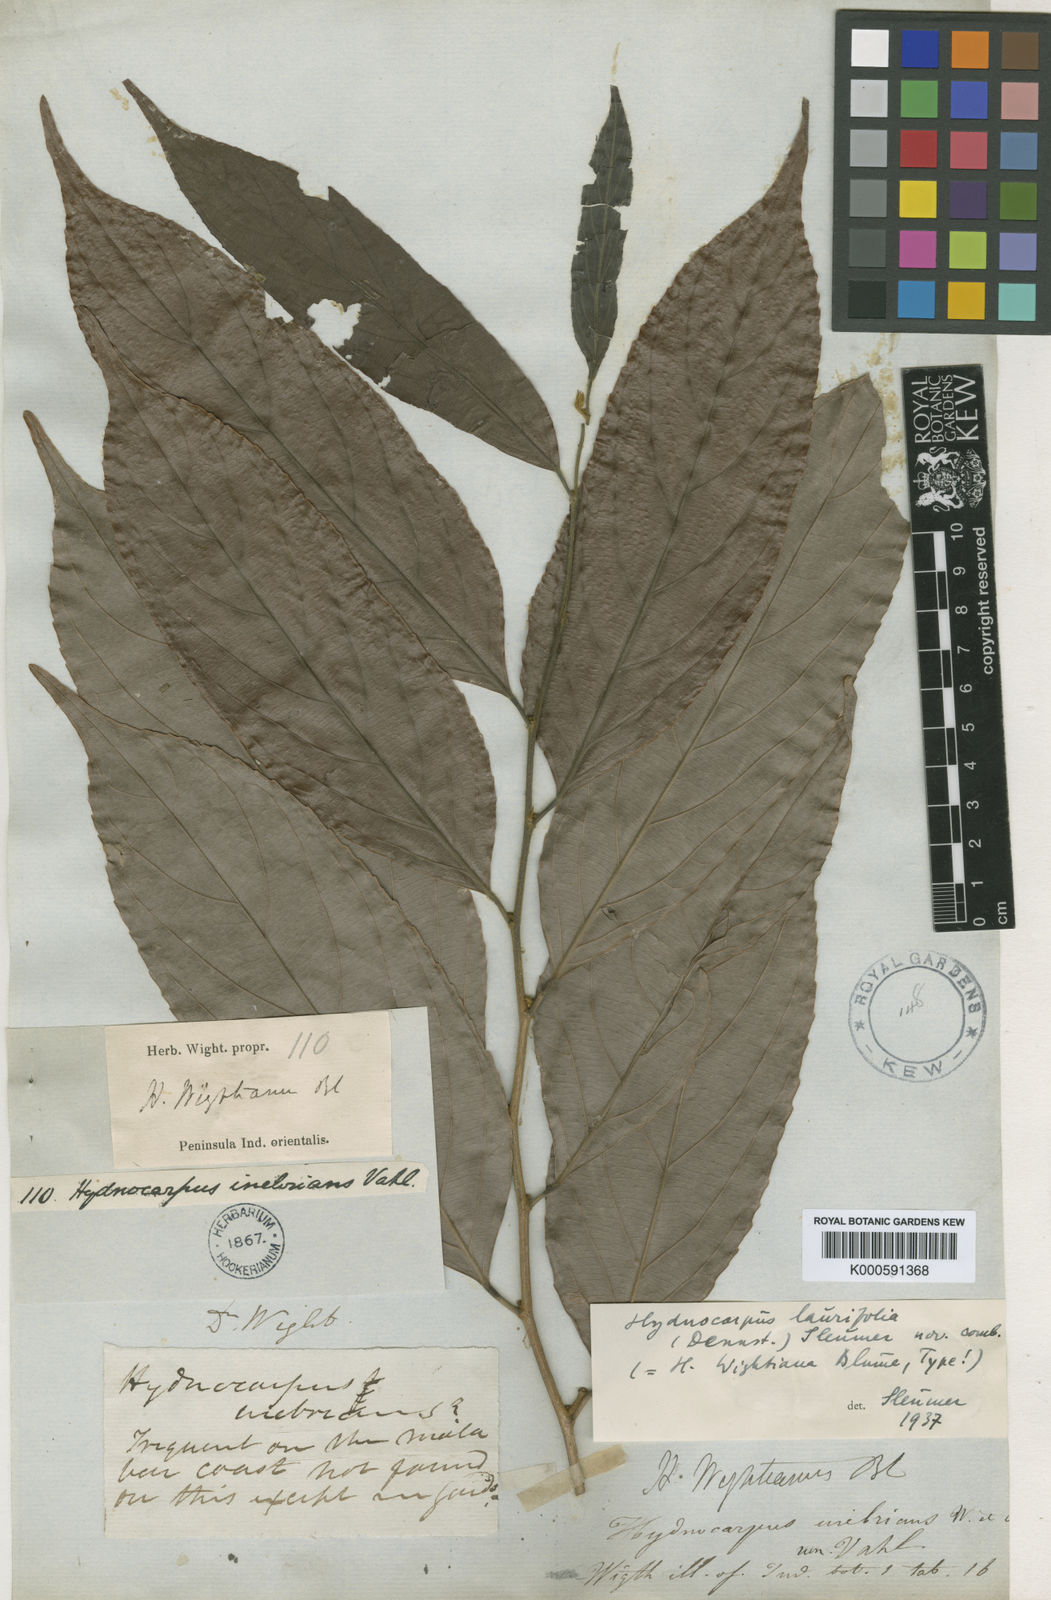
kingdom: Plantae
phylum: Tracheophyta
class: Magnoliopsida
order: Malpighiales
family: Achariaceae
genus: Hydnocarpus
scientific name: Hydnocarpus pentandrus
